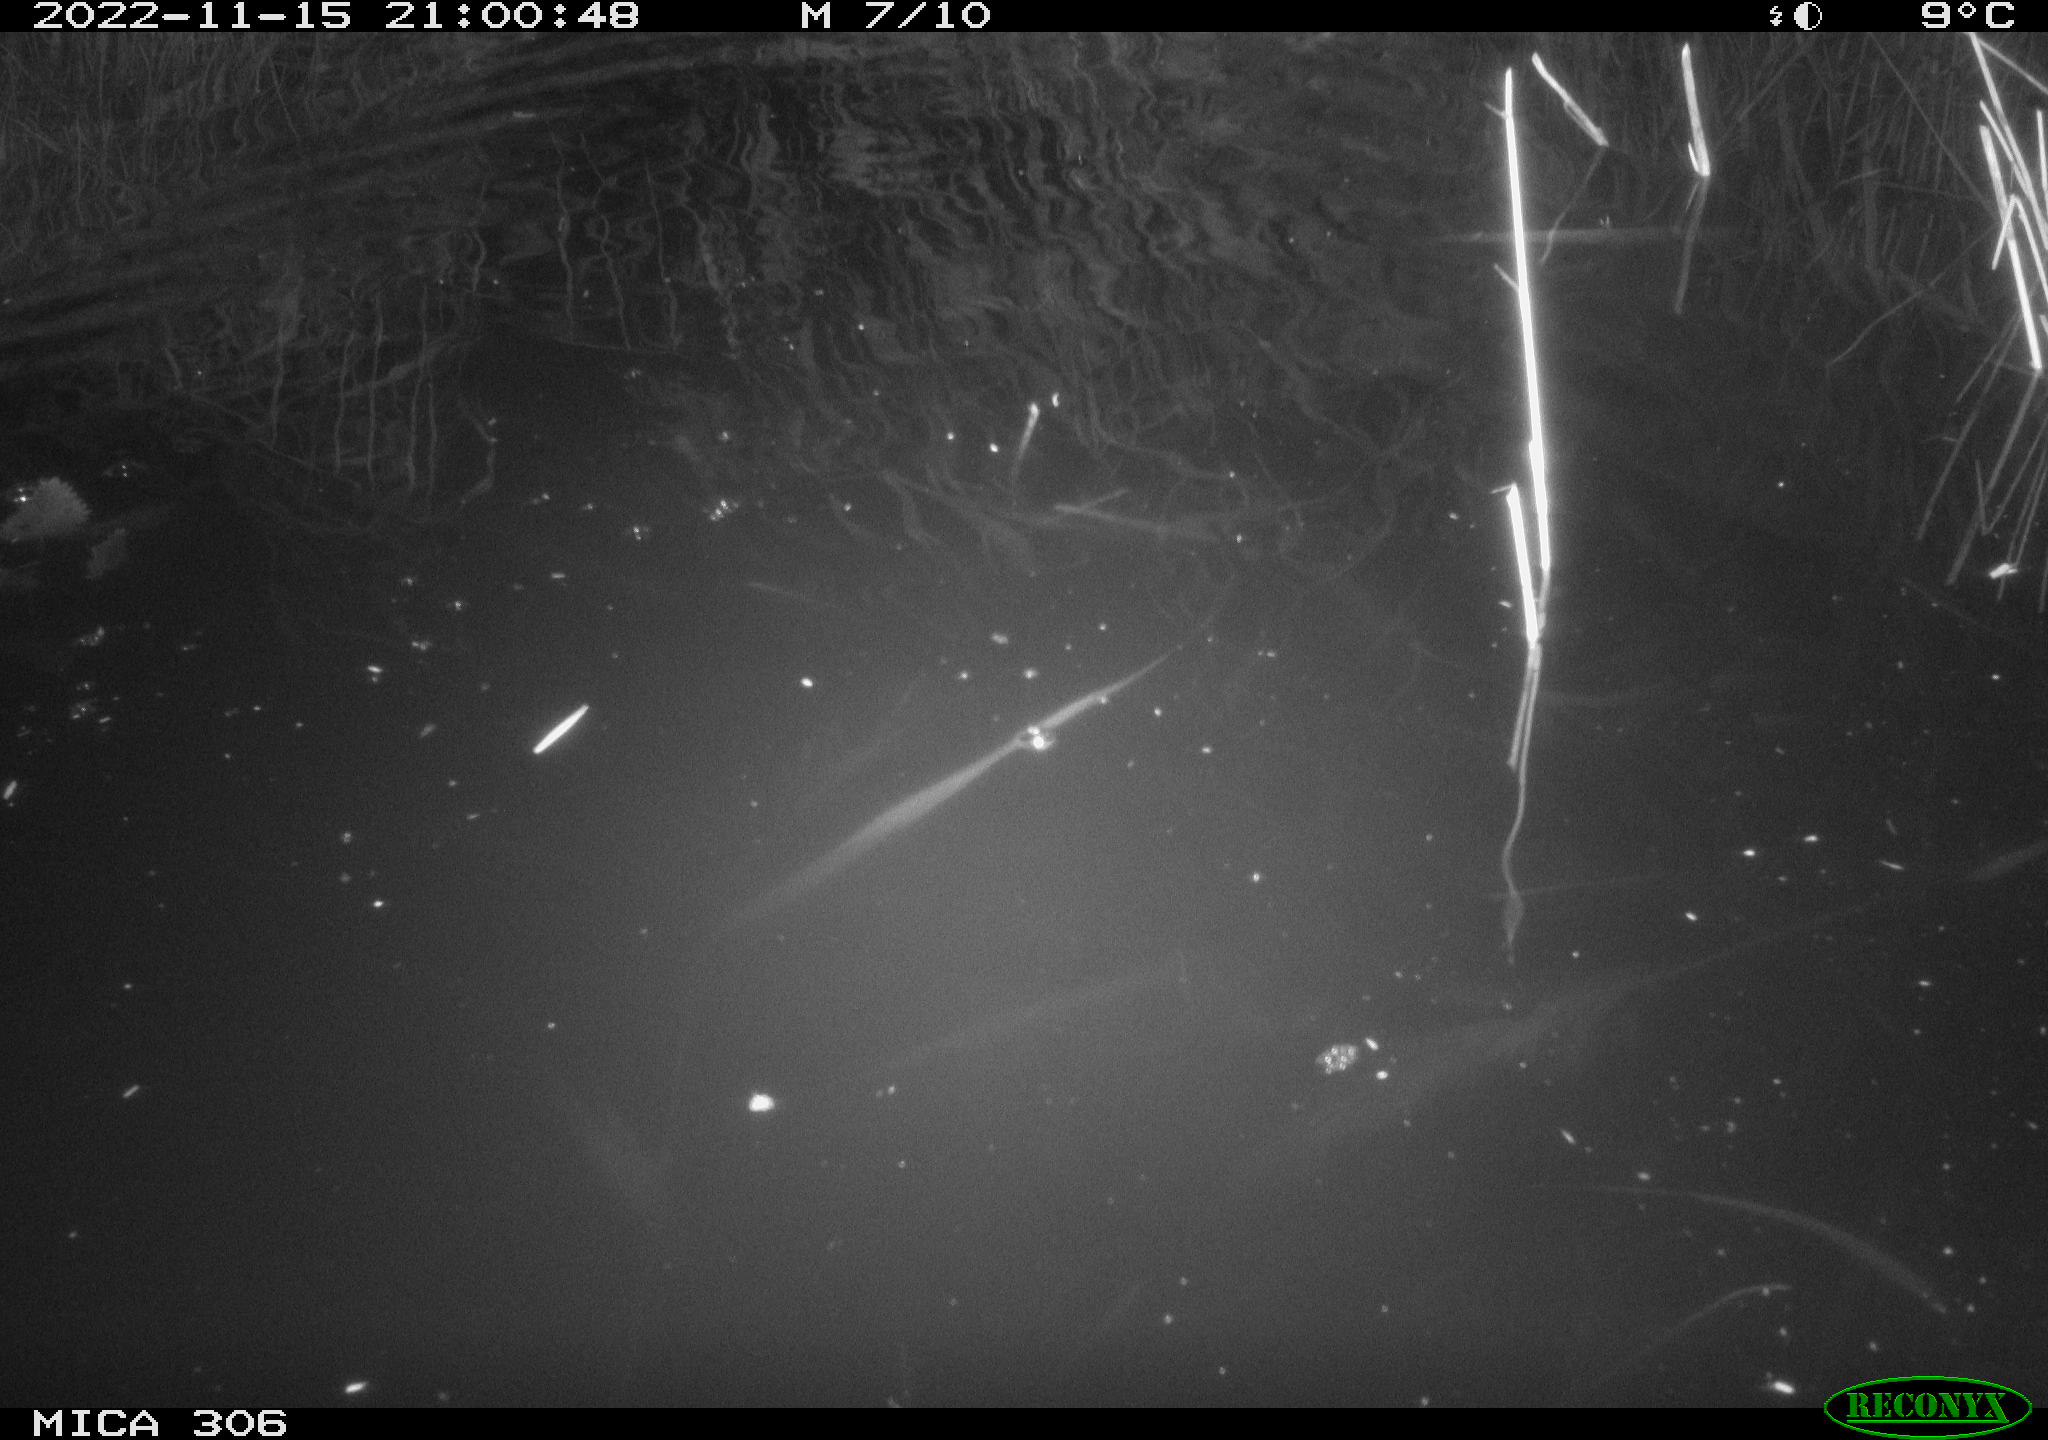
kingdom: Animalia
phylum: Chordata
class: Mammalia
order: Rodentia
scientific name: Rodentia
